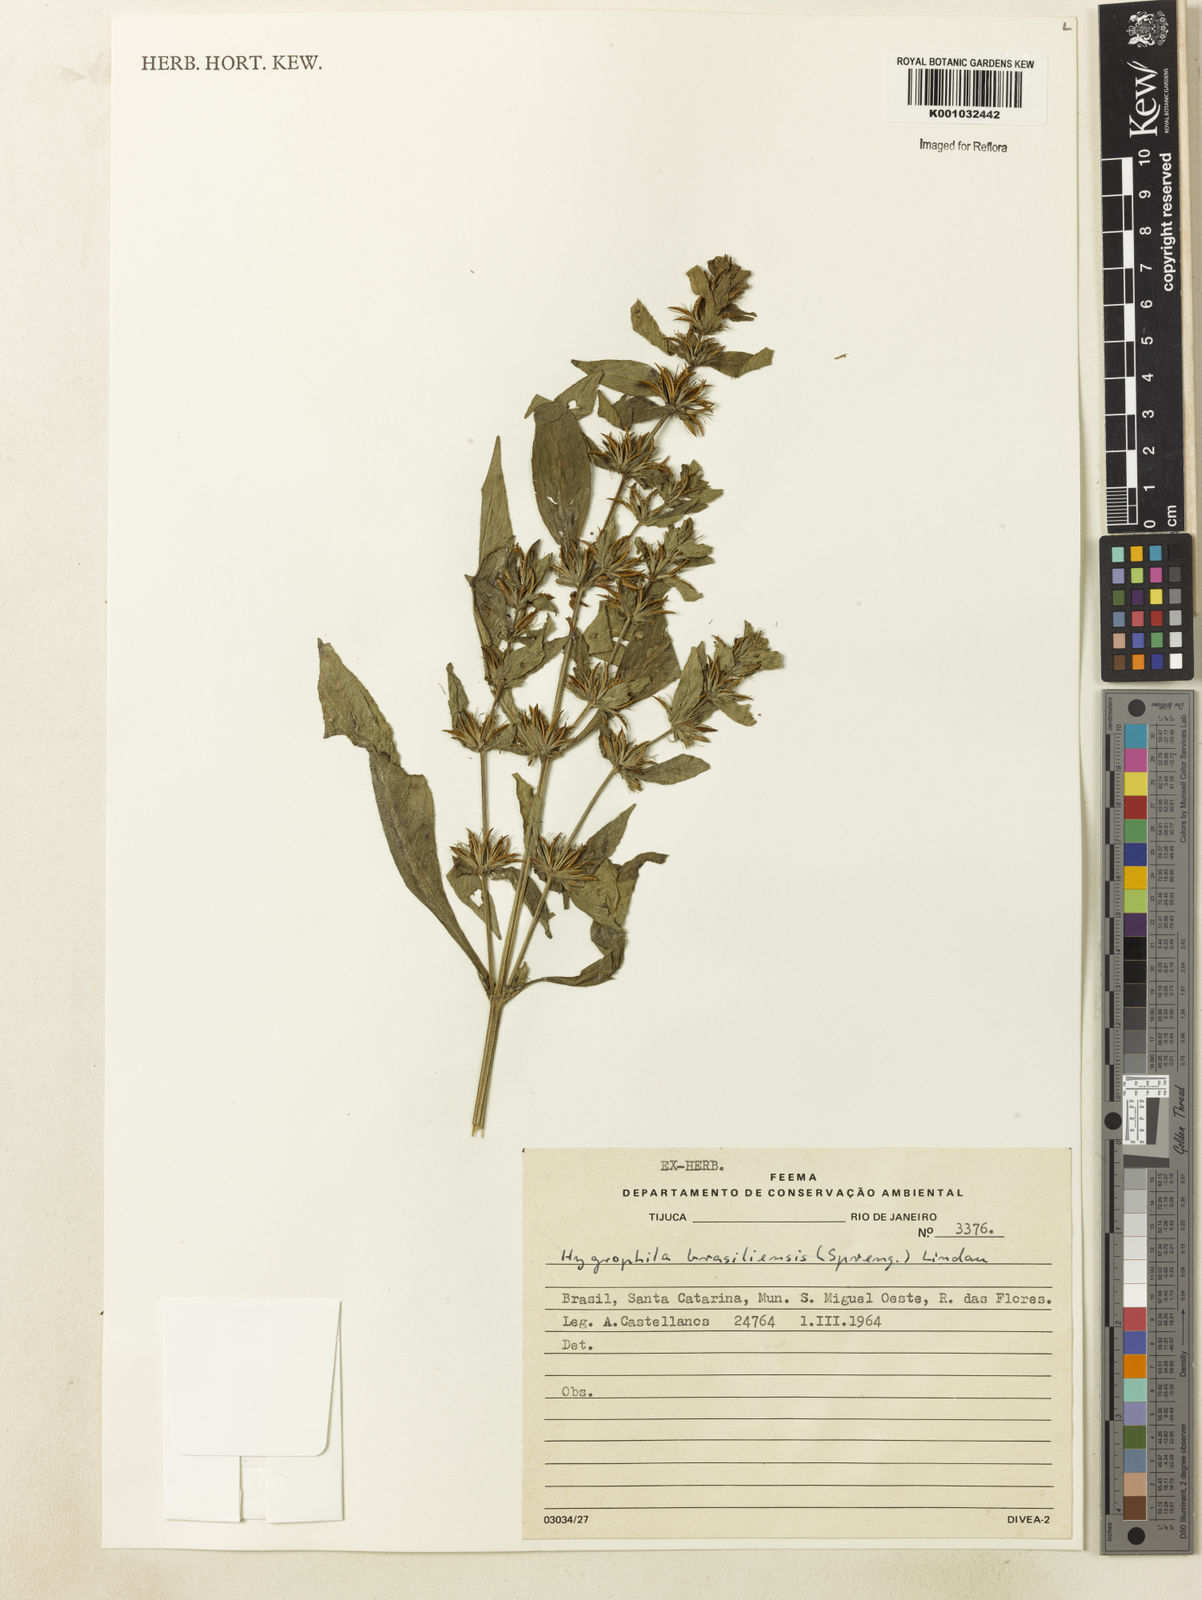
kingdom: Plantae
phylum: Tracheophyta
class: Magnoliopsida
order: Lamiales
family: Acanthaceae
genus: Hygrophila
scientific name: Hygrophila costata
